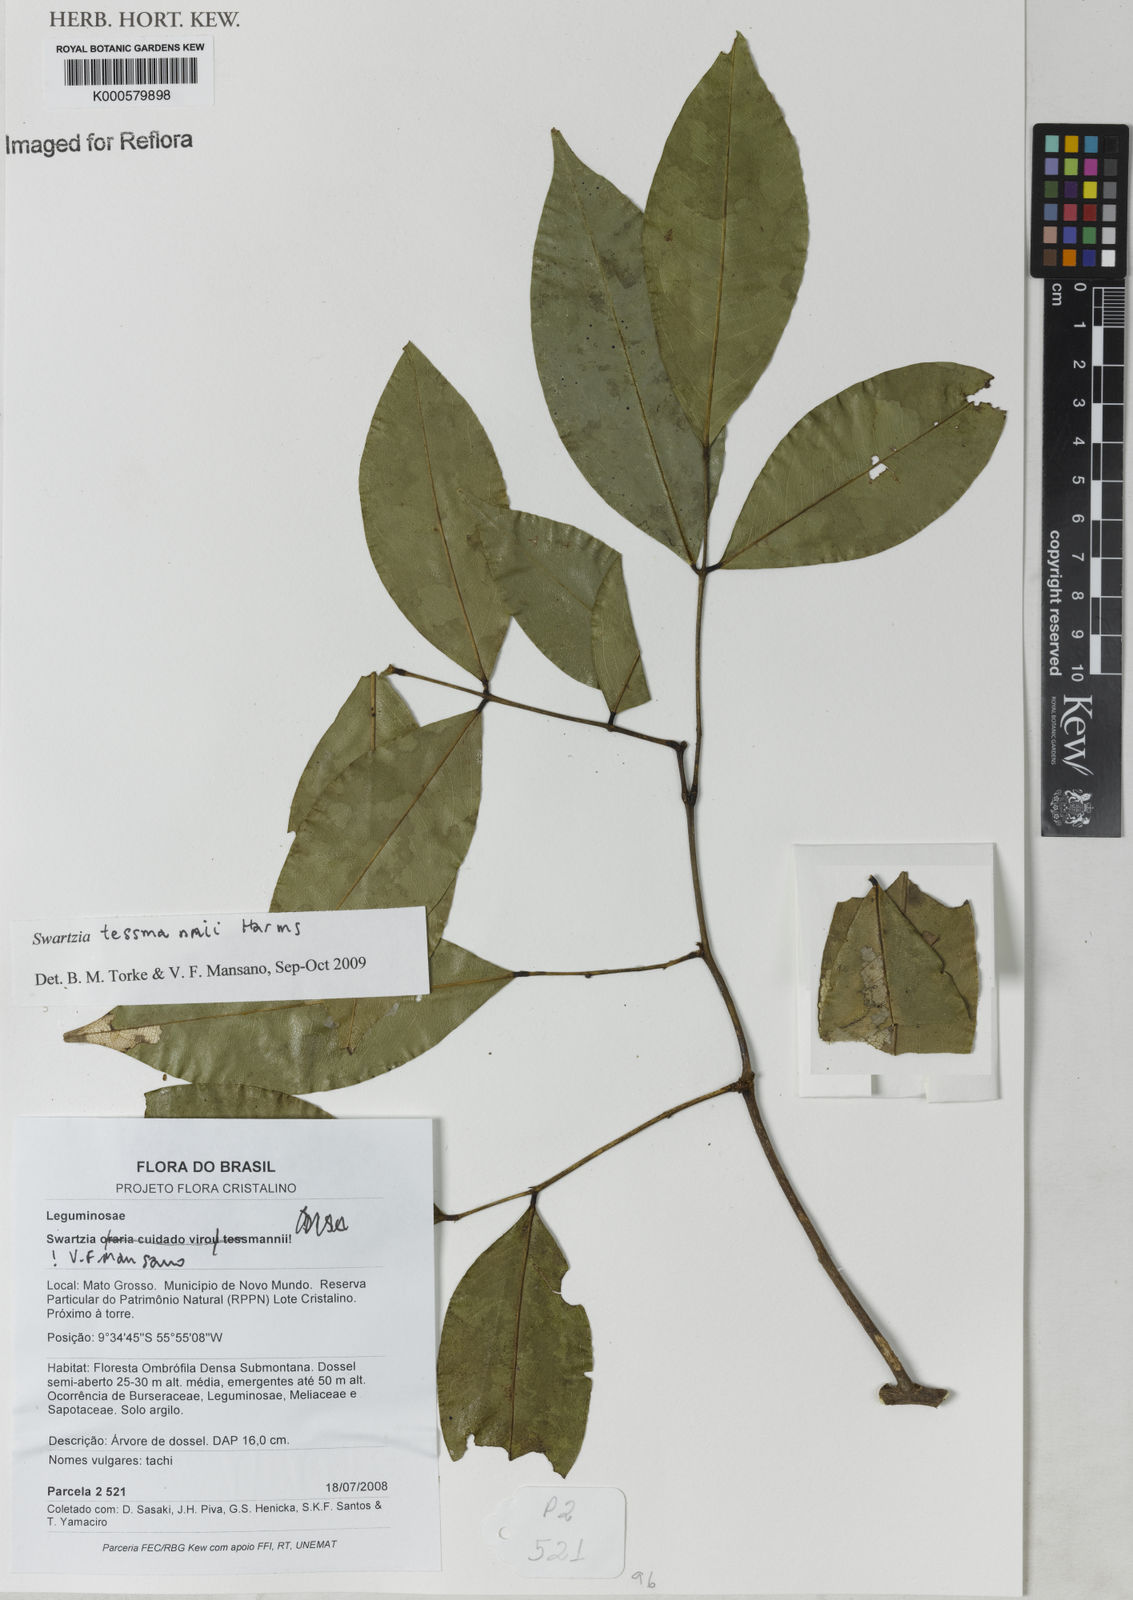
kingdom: Plantae
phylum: Tracheophyta
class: Magnoliopsida
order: Fabales
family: Fabaceae
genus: Swartzia
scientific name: Swartzia tessmannii
